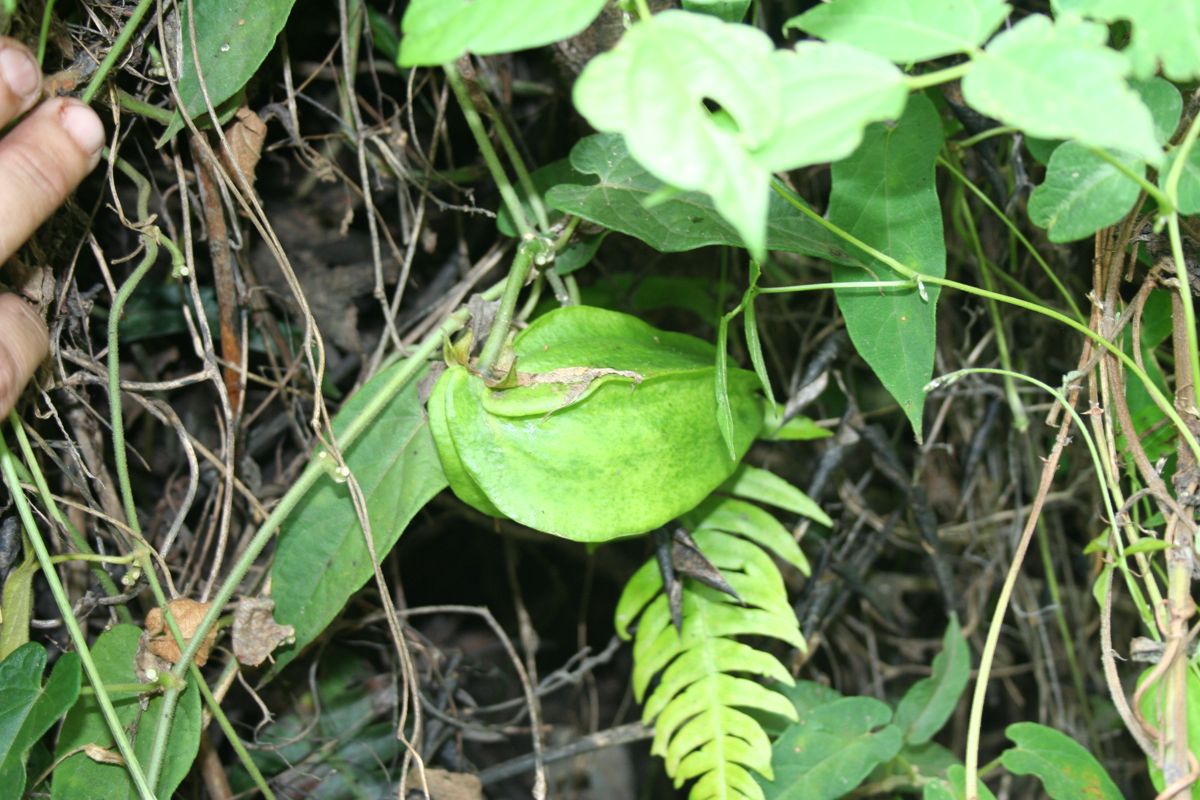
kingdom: Plantae
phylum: Tracheophyta
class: Magnoliopsida
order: Gentianales
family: Apocynaceae
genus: Gonolobus
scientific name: Gonolobus incerianus
